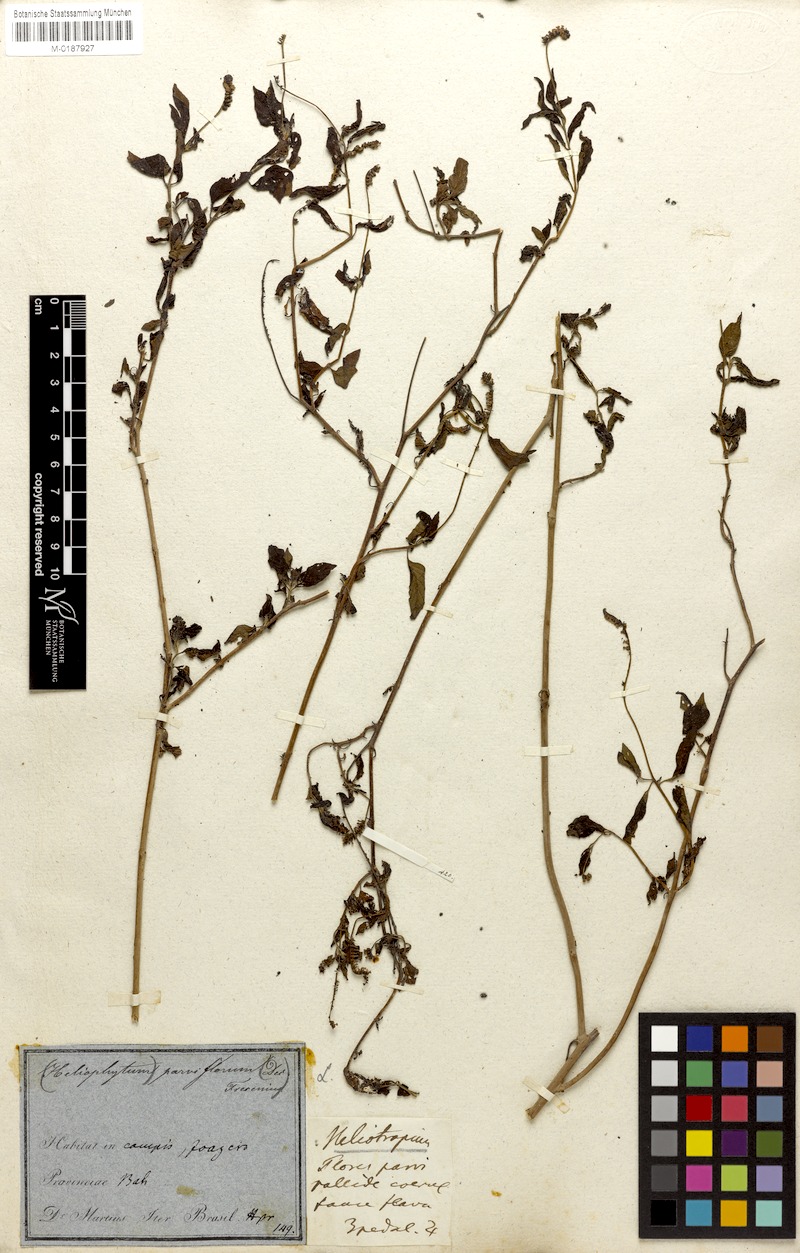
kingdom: Plantae
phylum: Tracheophyta
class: Magnoliopsida
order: Boraginales
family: Heliotropiaceae
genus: Heliotropium
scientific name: Heliotropium angiospermum
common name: Eye bright
